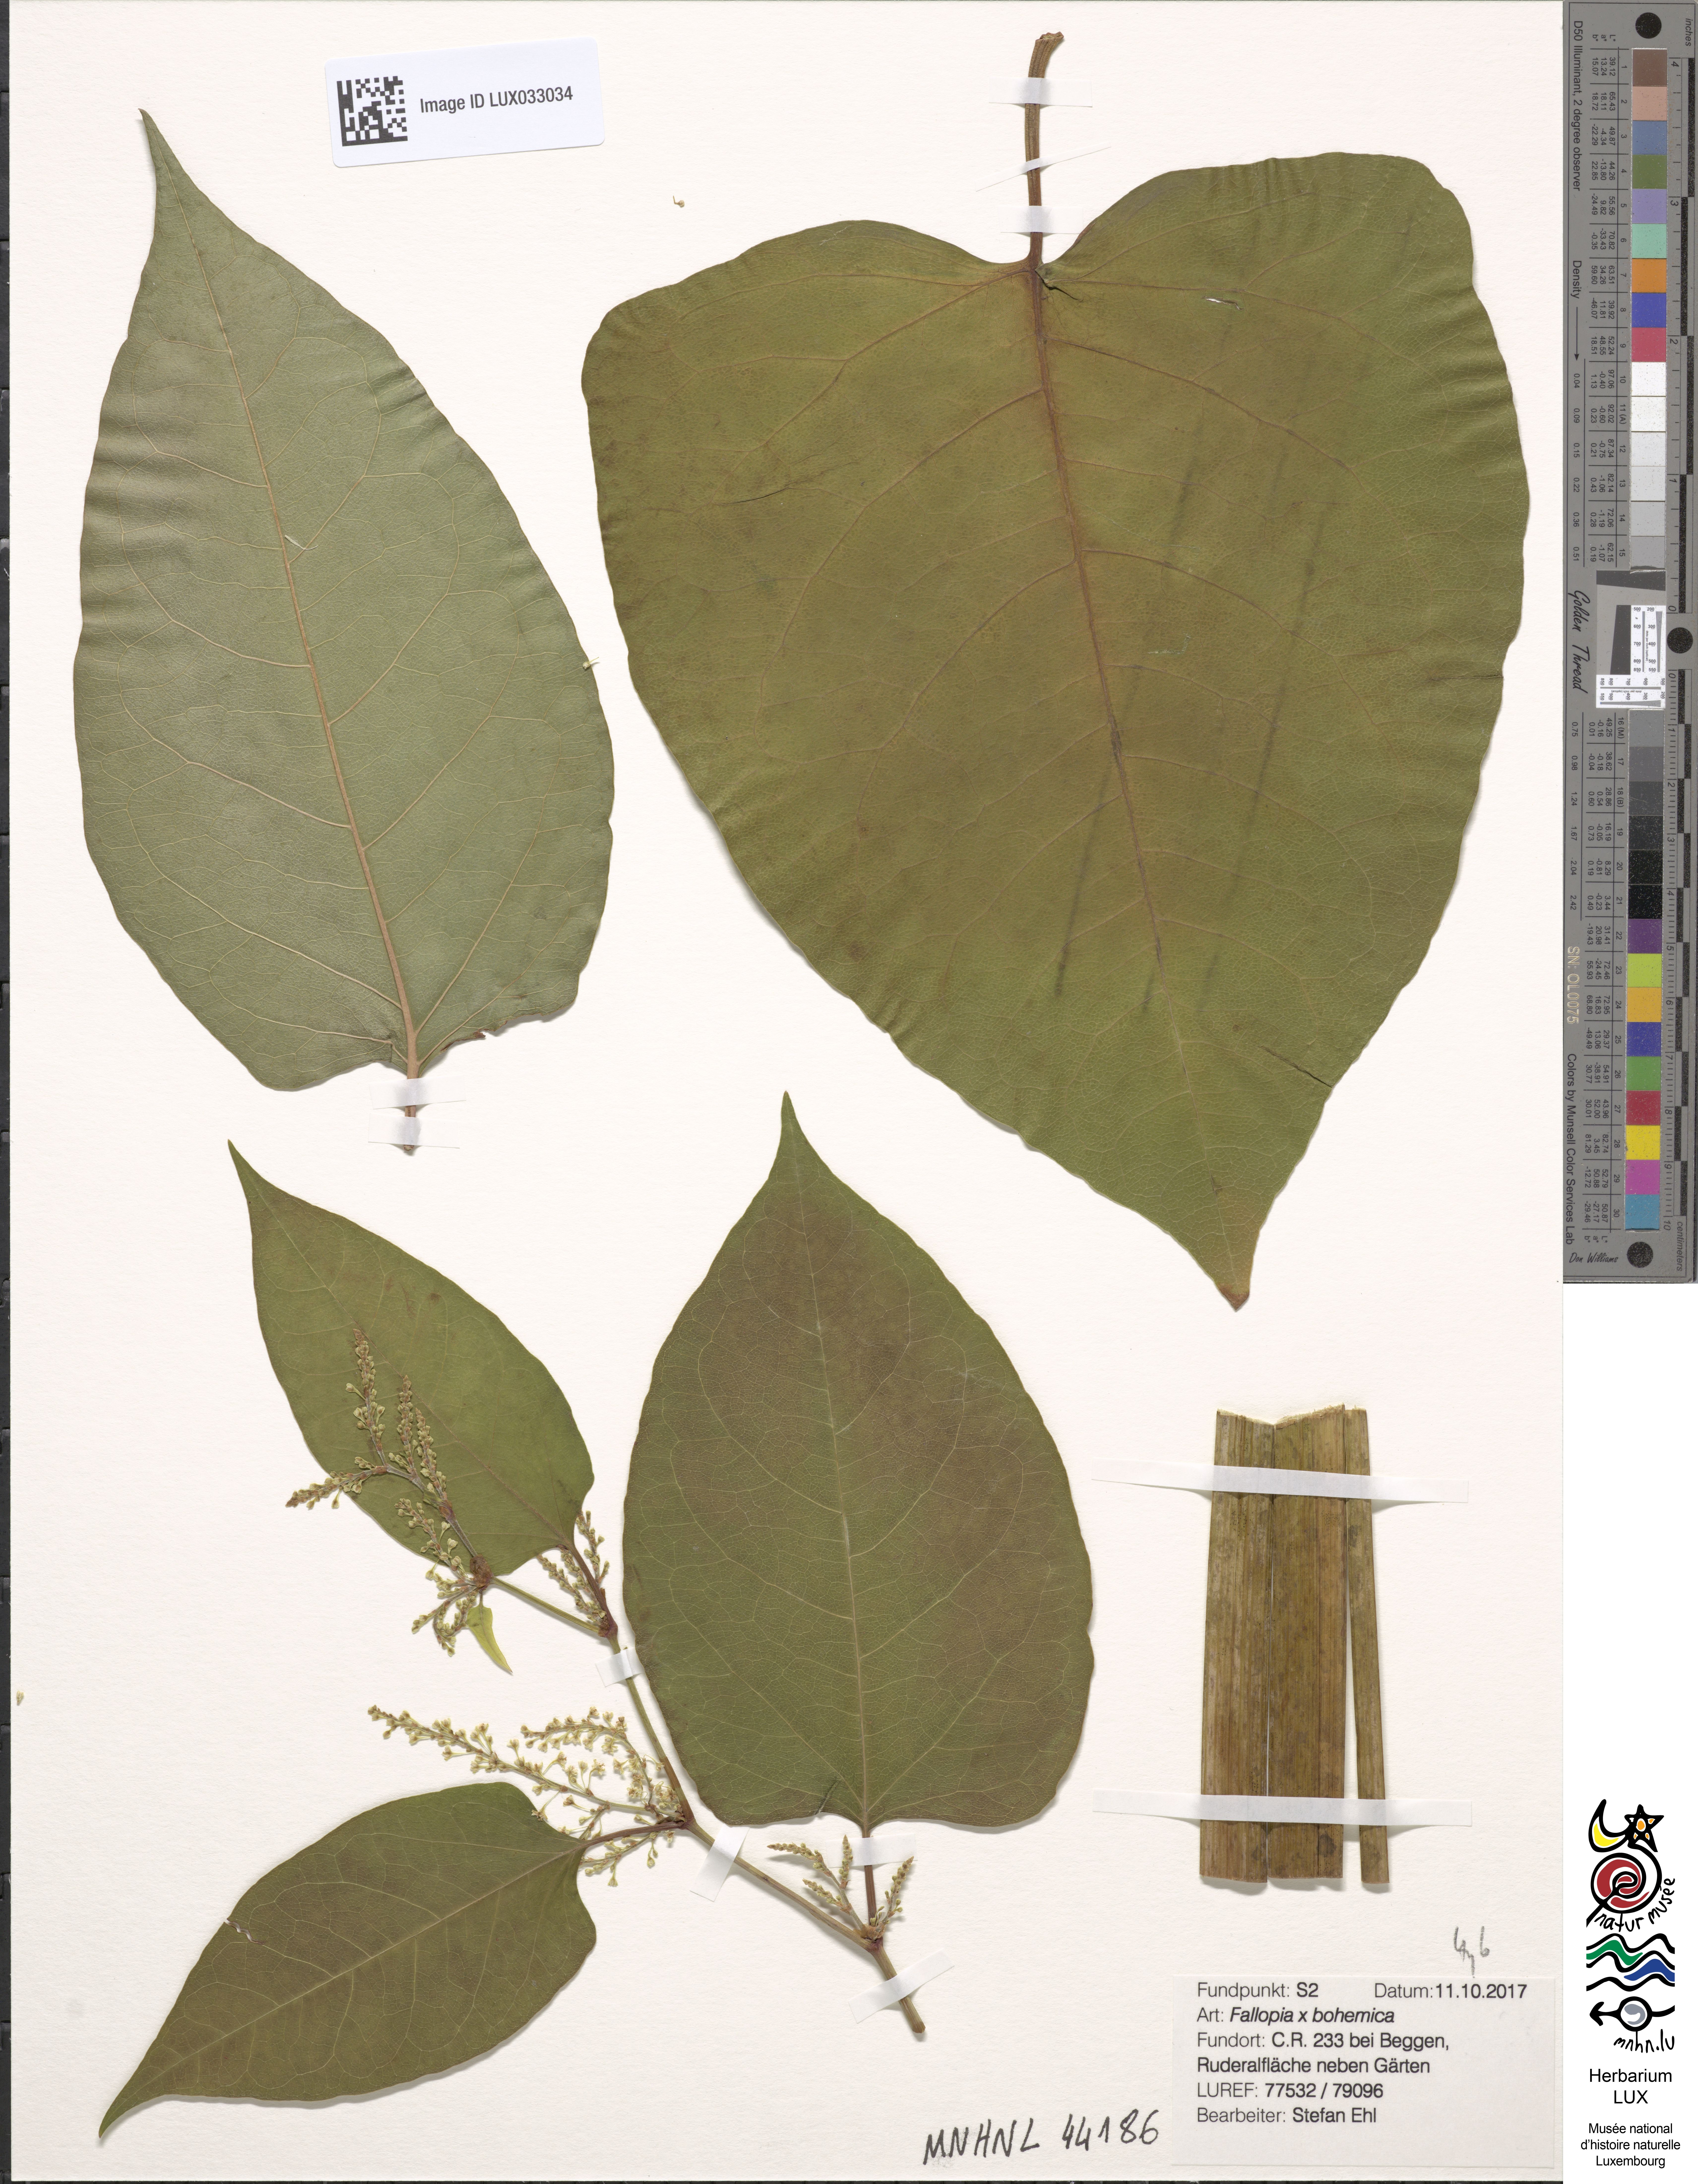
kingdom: Plantae
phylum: Tracheophyta
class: Magnoliopsida
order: Caryophyllales
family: Polygonaceae
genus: Reynoutria
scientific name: Reynoutria bohemica
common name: Bohemian knotweed
